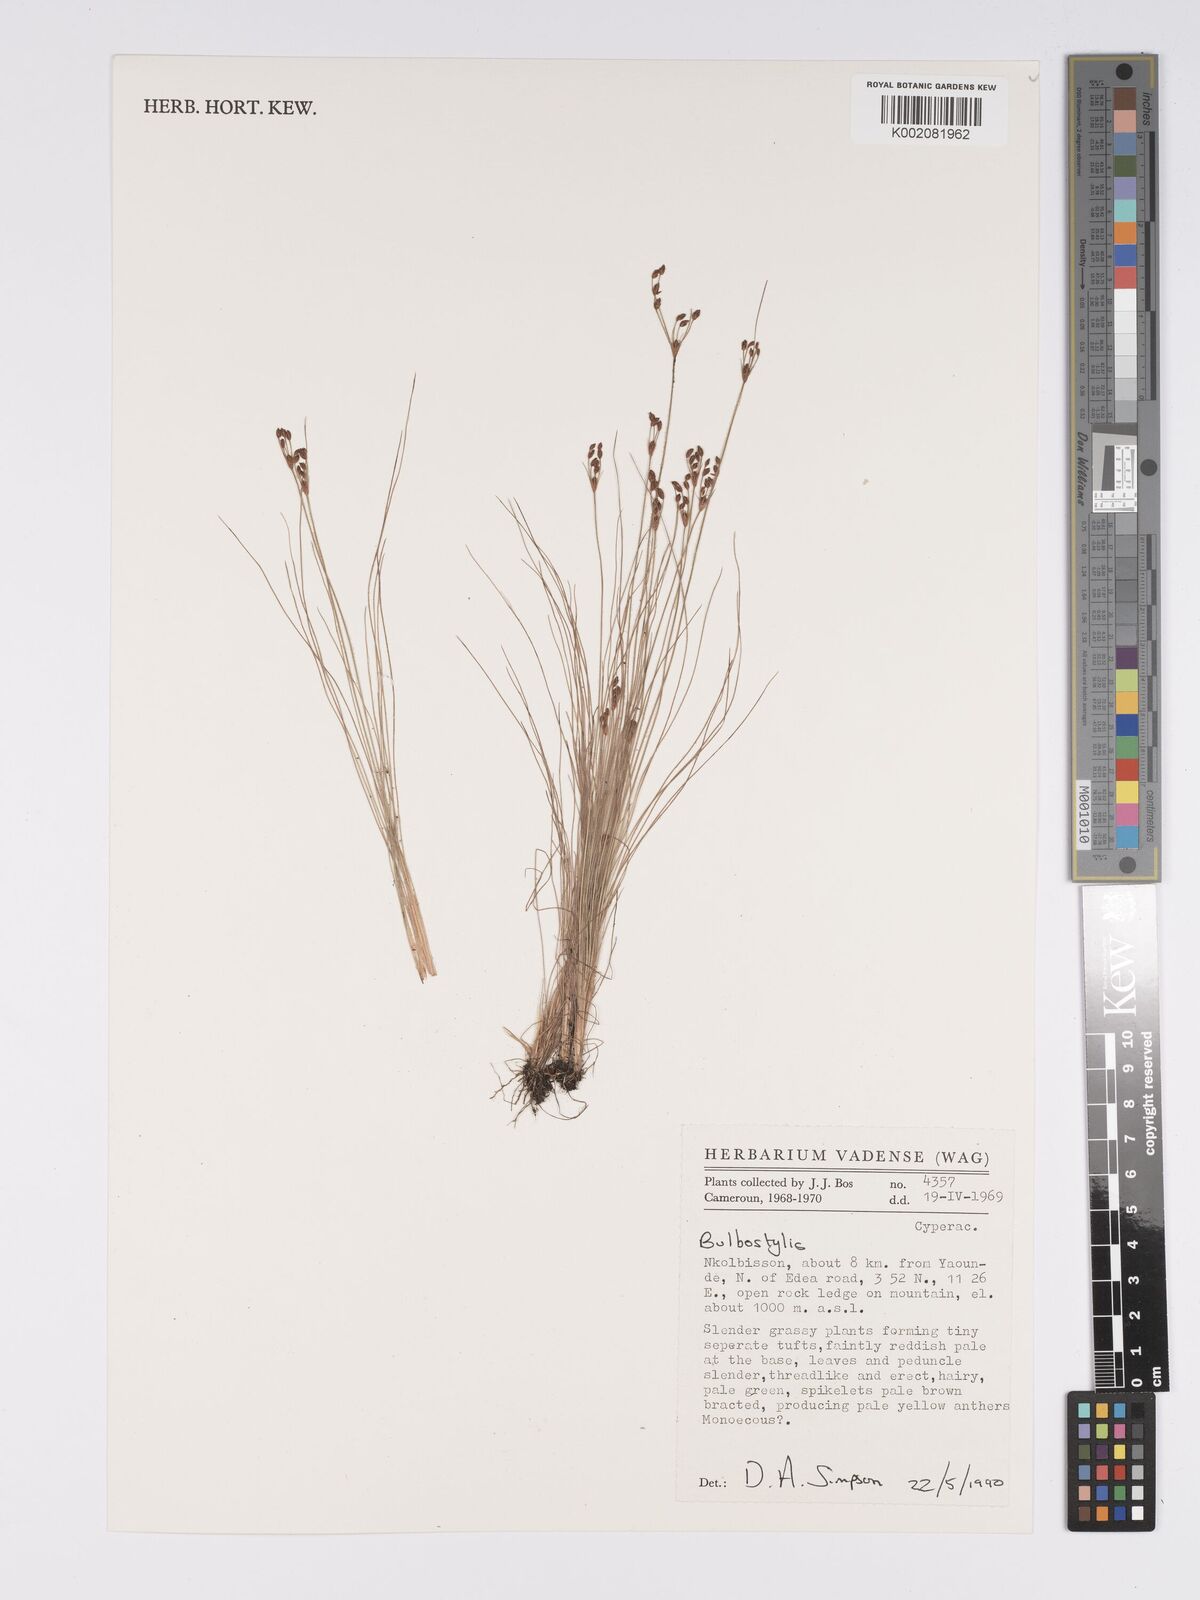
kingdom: Plantae
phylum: Tracheophyta
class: Magnoliopsida
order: Asterales
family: Asteraceae
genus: Bulbostylis
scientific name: Bulbostylis
